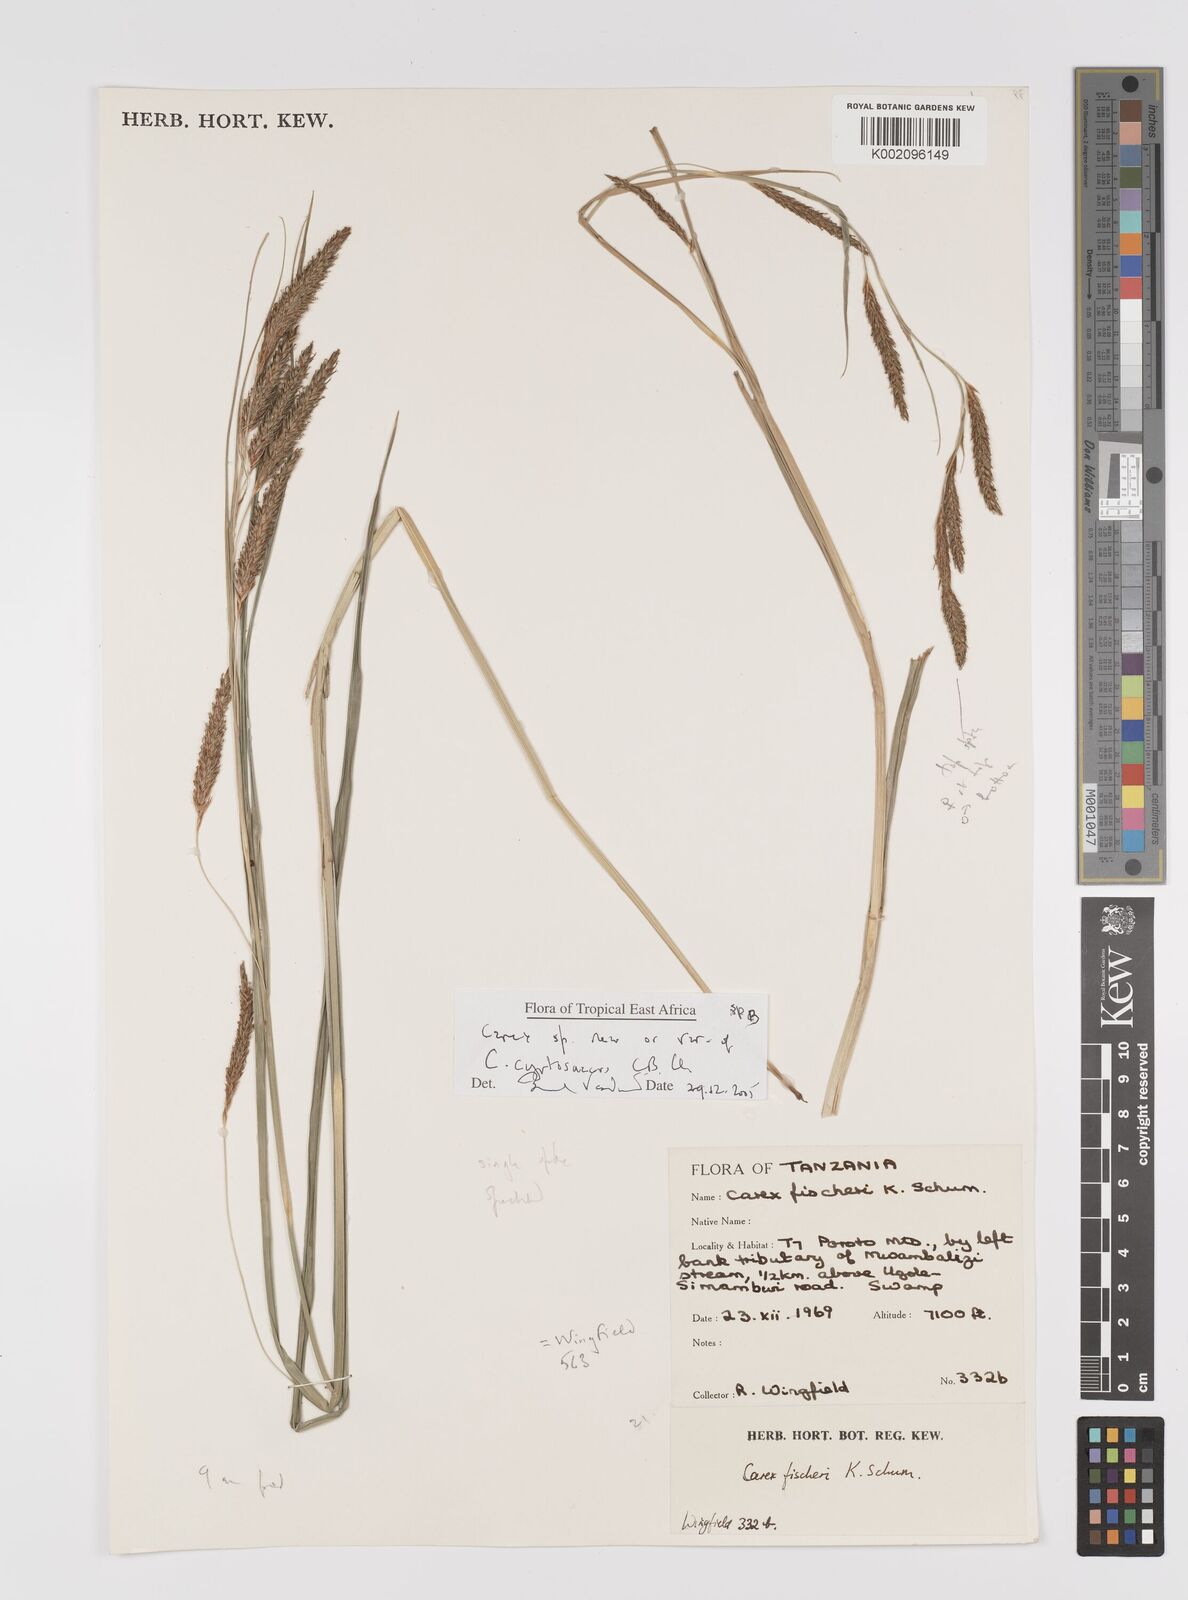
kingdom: Plantae
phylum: Tracheophyta
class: Liliopsida
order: Poales
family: Cyperaceae
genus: Carex
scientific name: Carex
